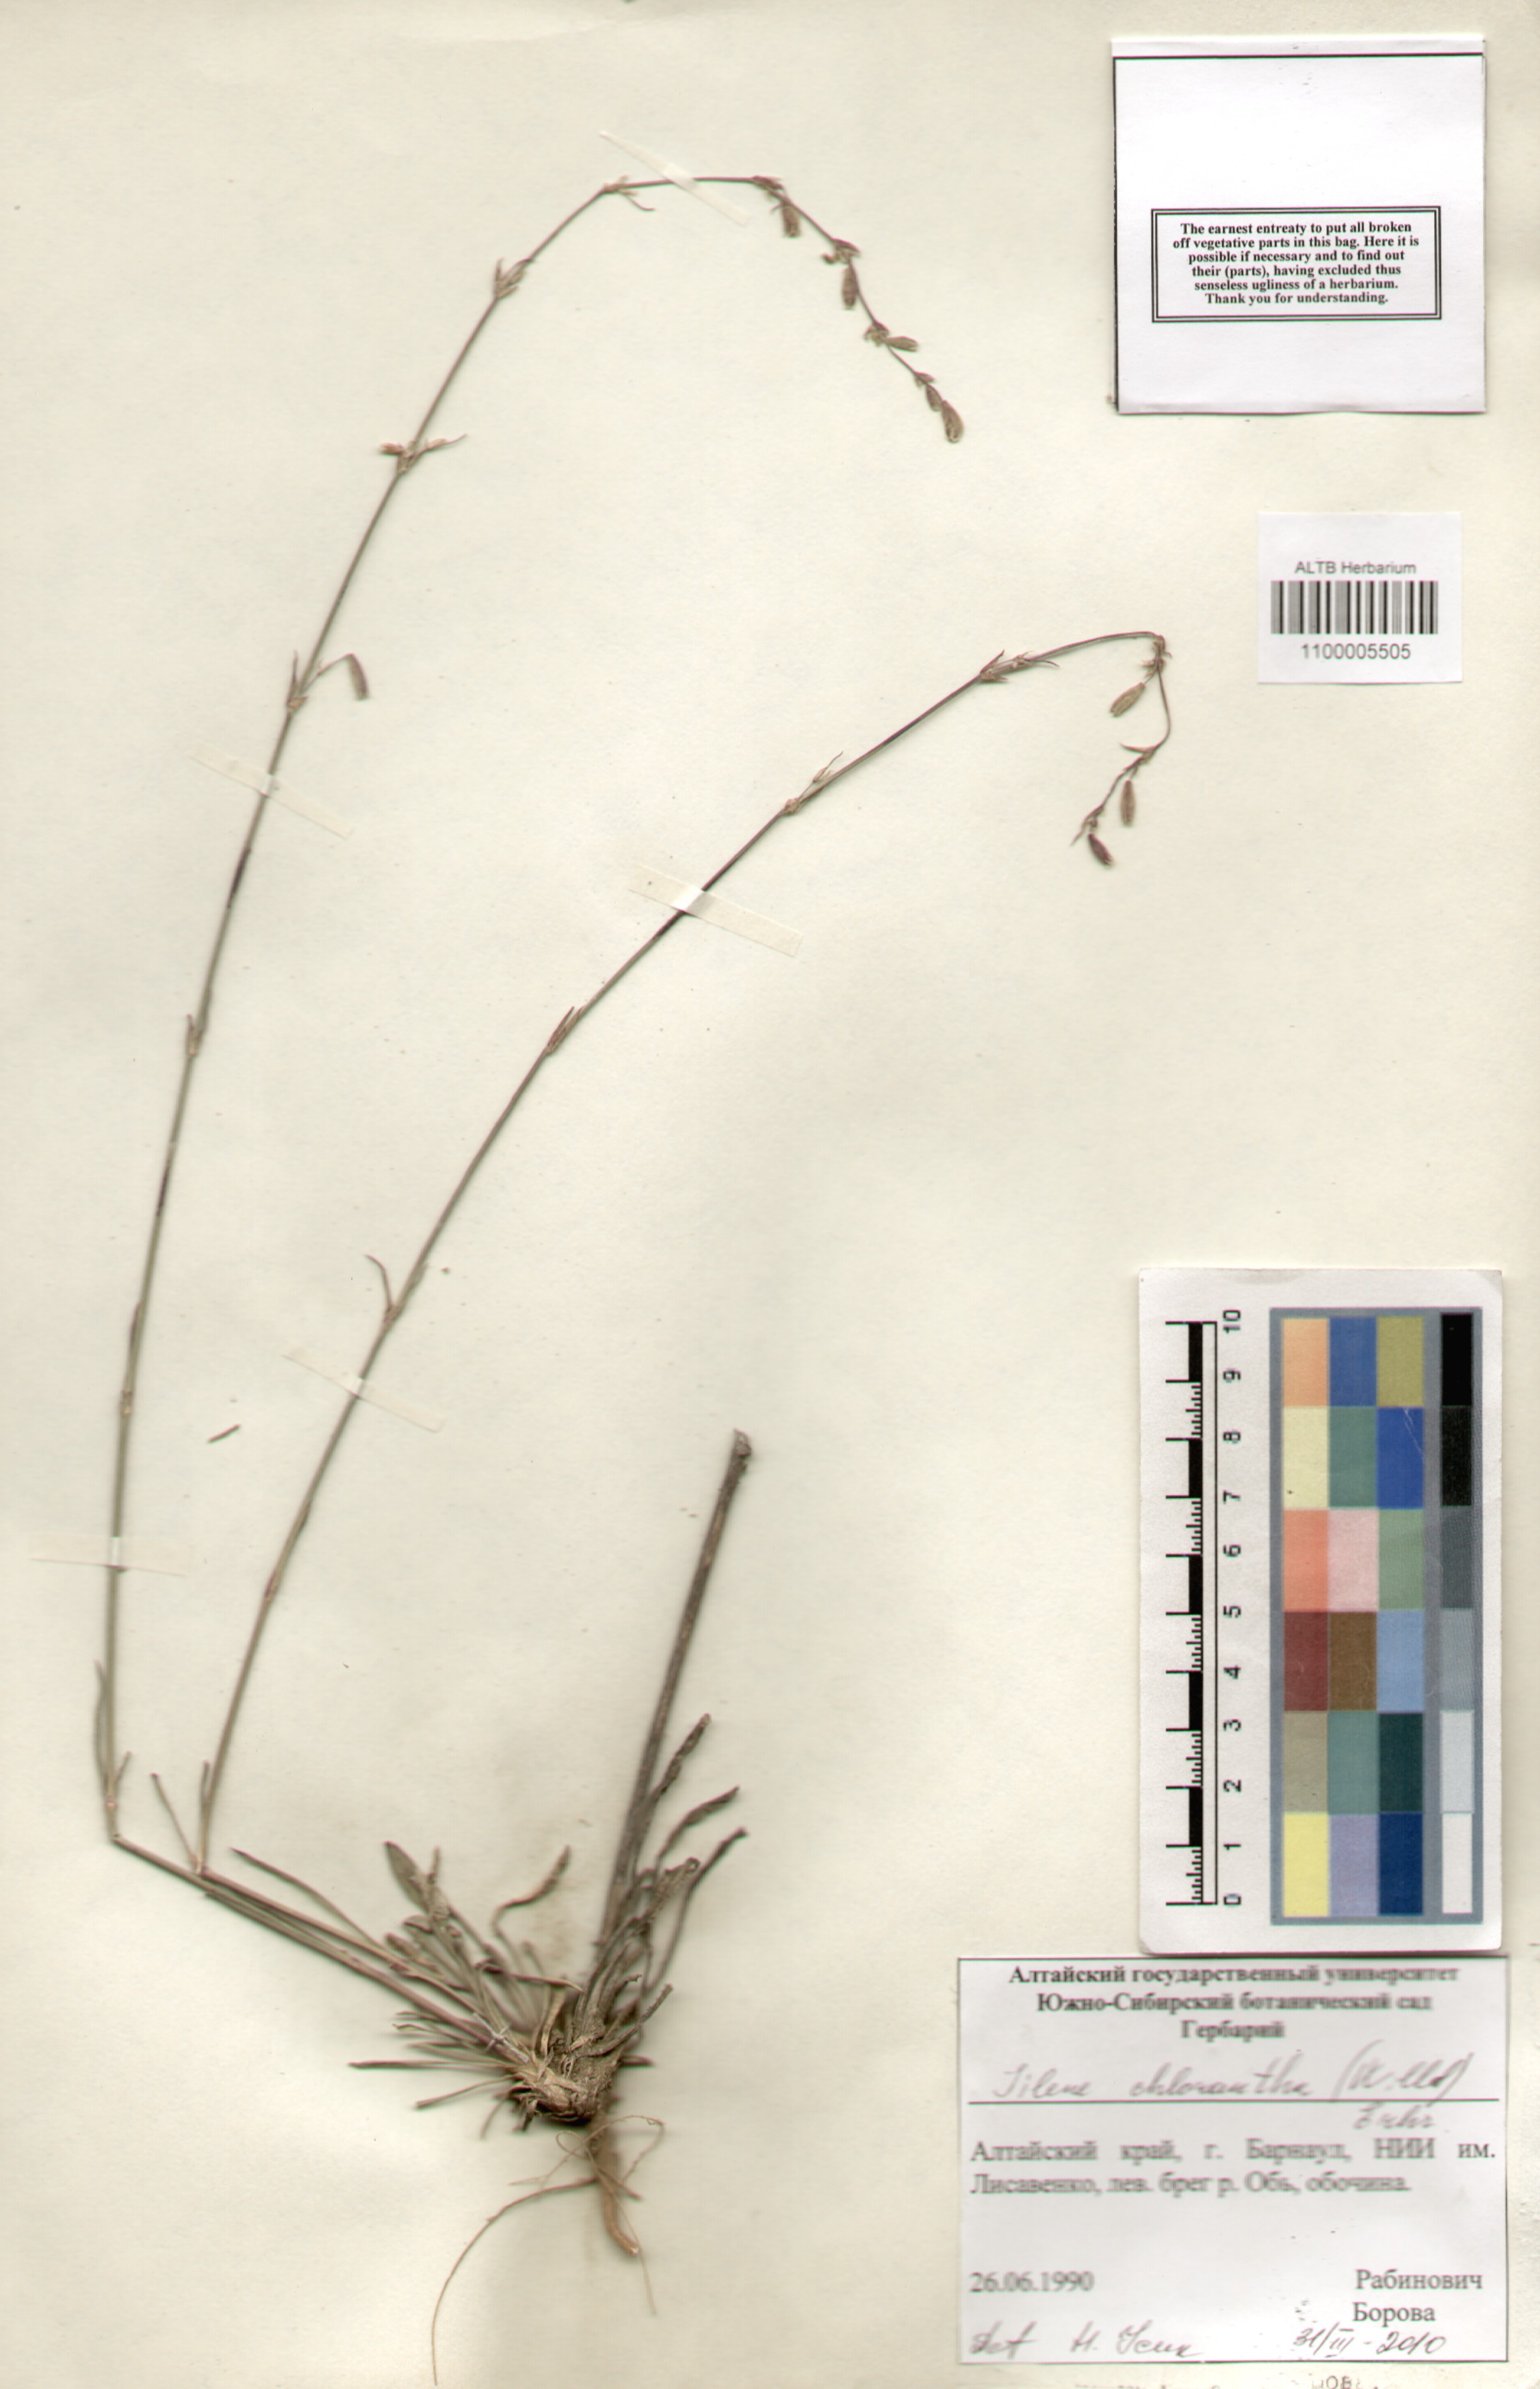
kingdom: Plantae
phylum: Tracheophyta
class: Magnoliopsida
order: Caryophyllales
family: Caryophyllaceae
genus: Silene
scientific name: Silene chlorantha
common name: Yellowgreen catchfly
